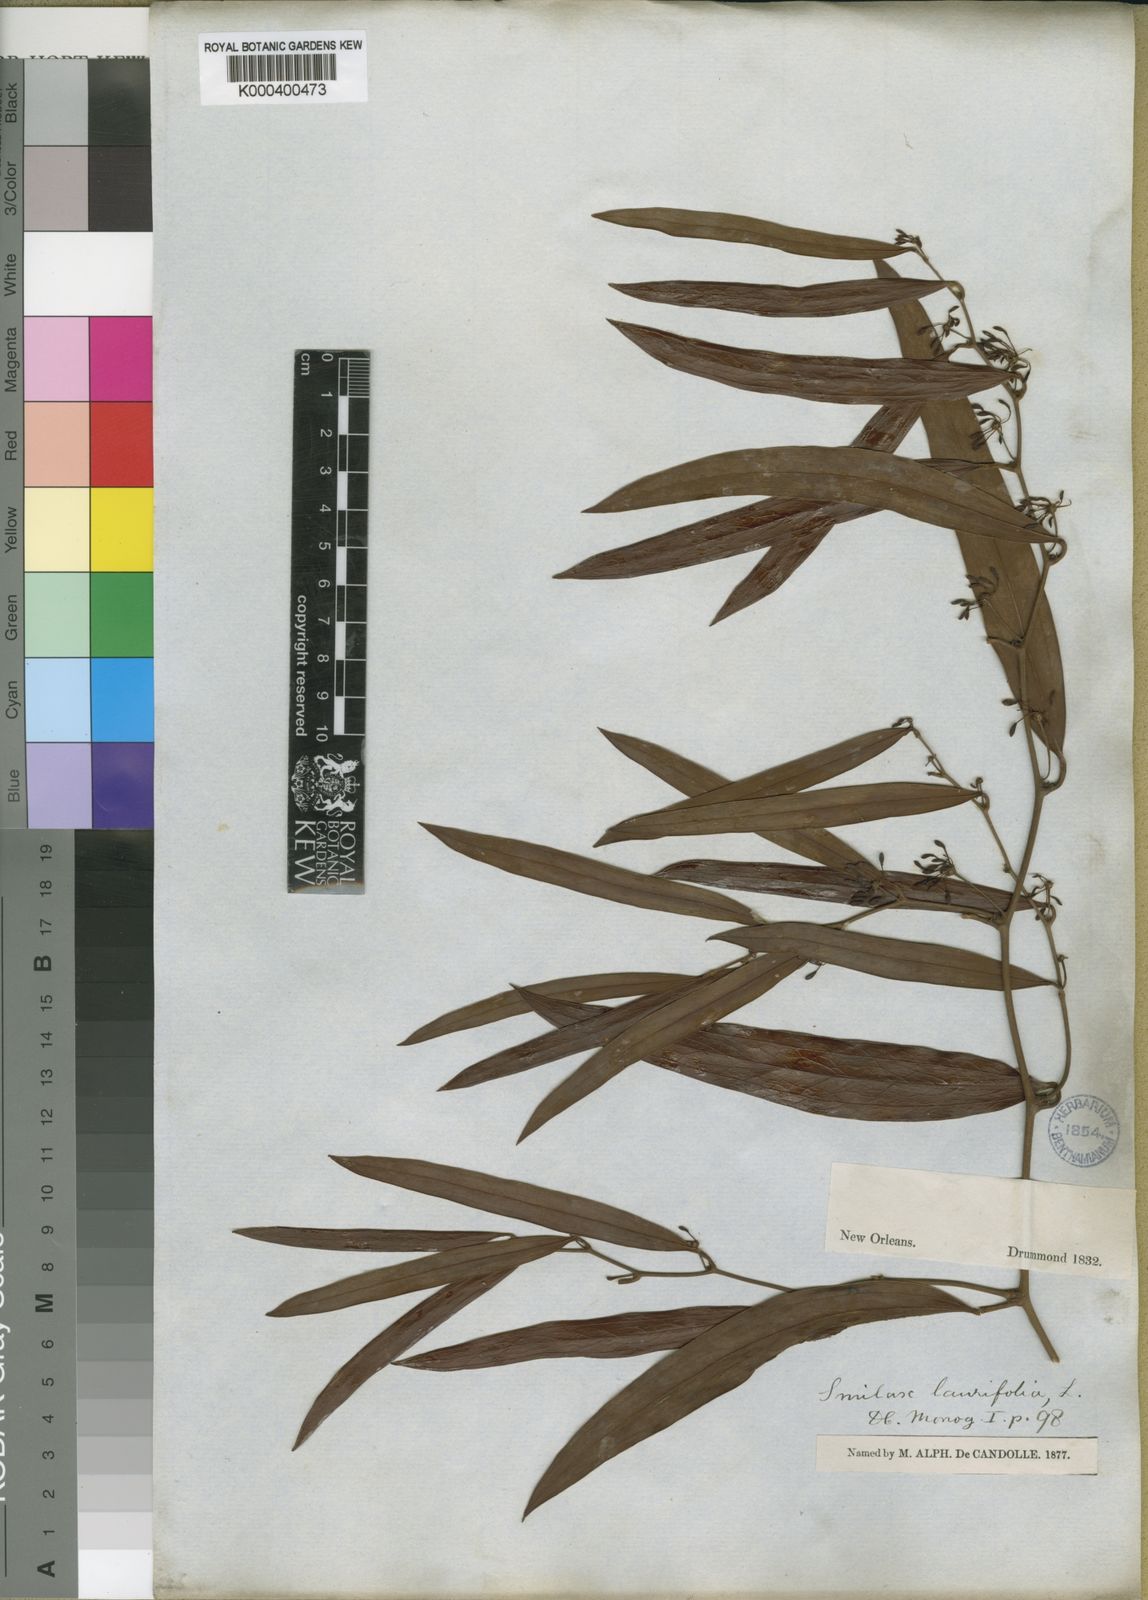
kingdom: Plantae
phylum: Tracheophyta
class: Liliopsida
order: Liliales
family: Smilacaceae
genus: Smilax
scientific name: Smilax laurifolia
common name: Bamboovine
